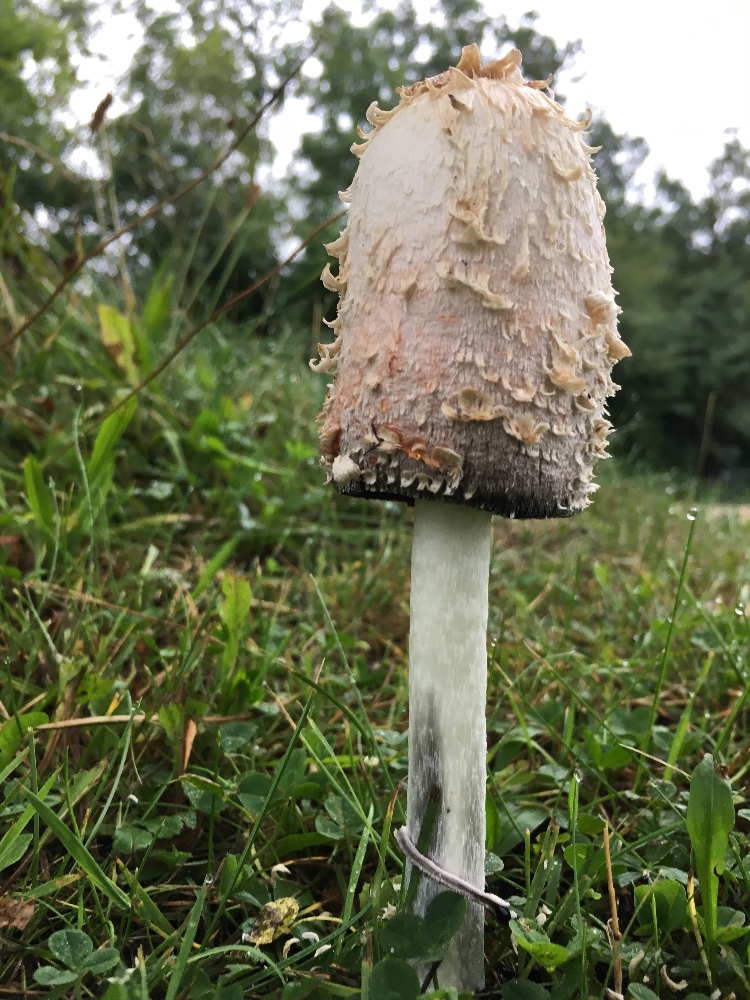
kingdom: Fungi
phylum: Basidiomycota
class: Agaricomycetes
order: Agaricales
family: Agaricaceae
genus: Coprinus
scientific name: Coprinus comatus
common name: stor parykhat
